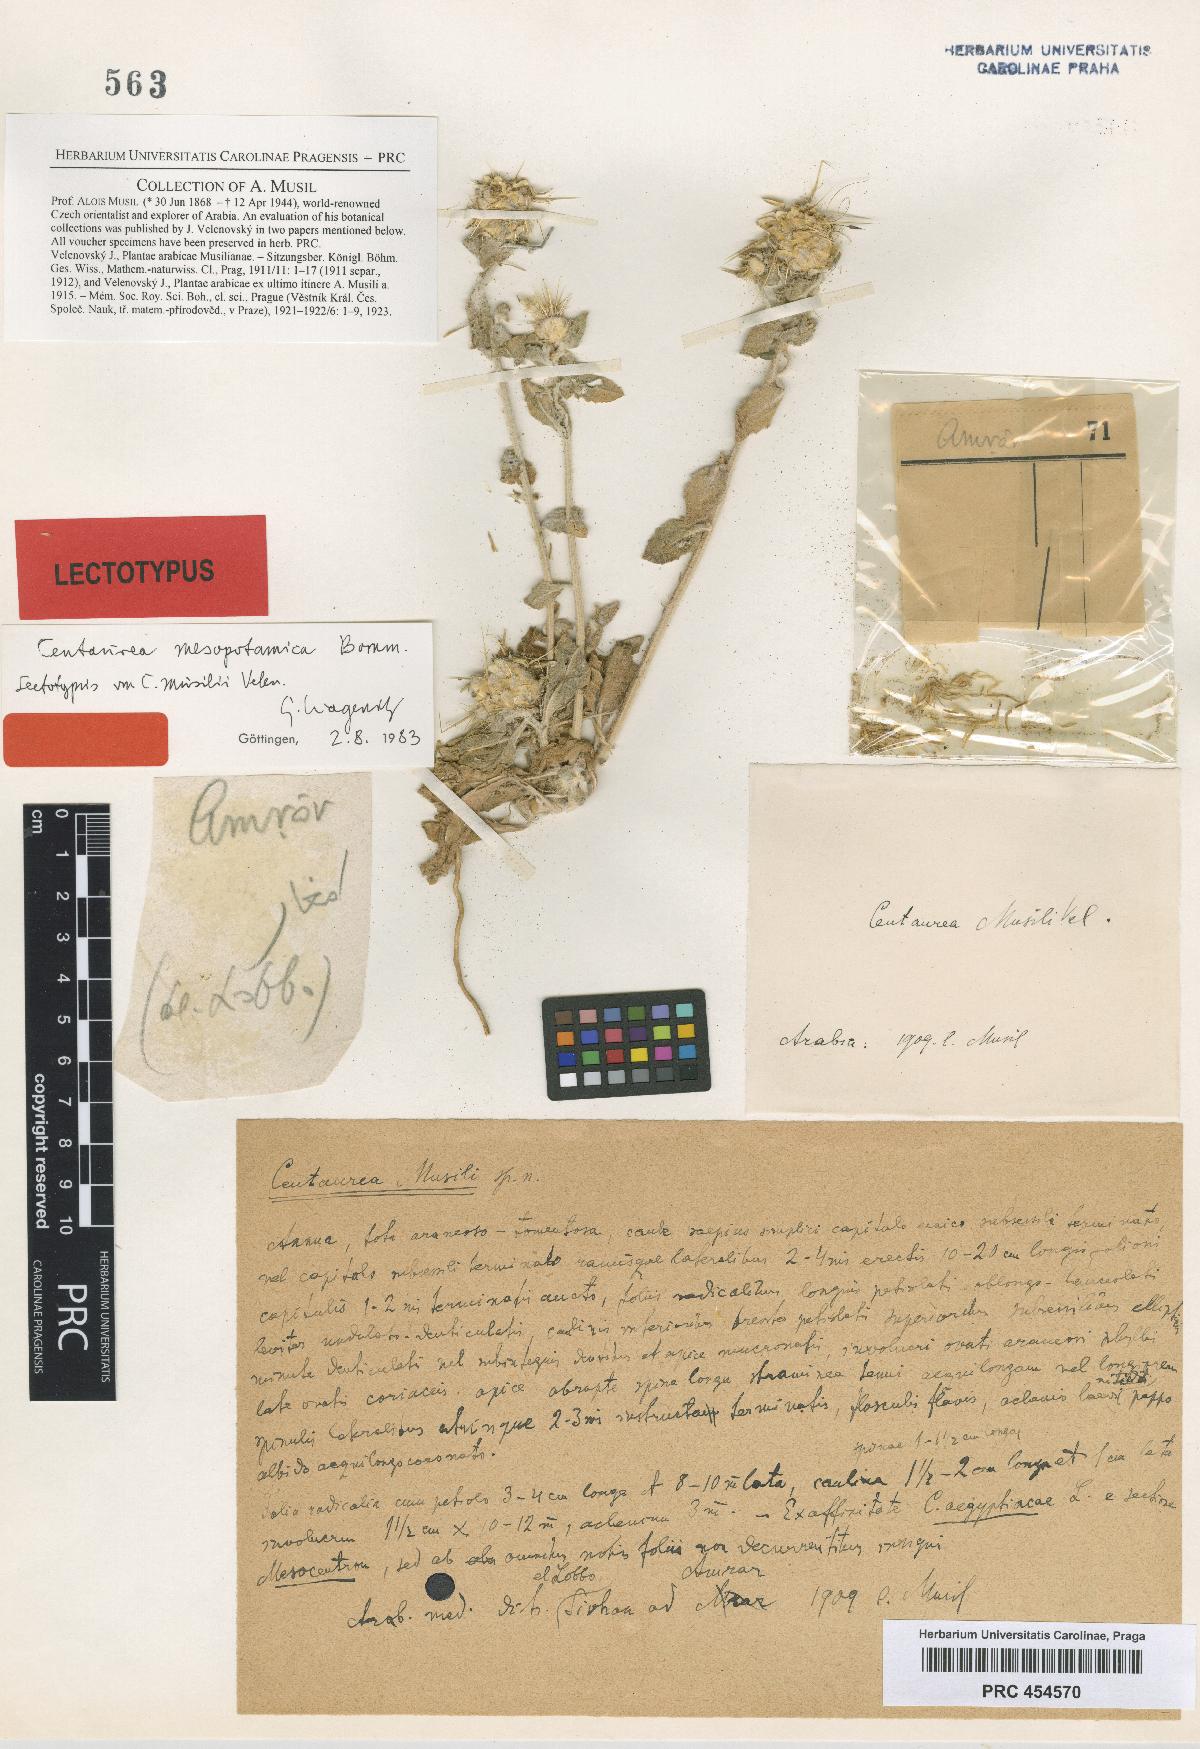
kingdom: Plantae
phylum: Tracheophyta
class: Magnoliopsida
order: Asterales
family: Asteraceae
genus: Centaurea
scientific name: Centaurea musilii
